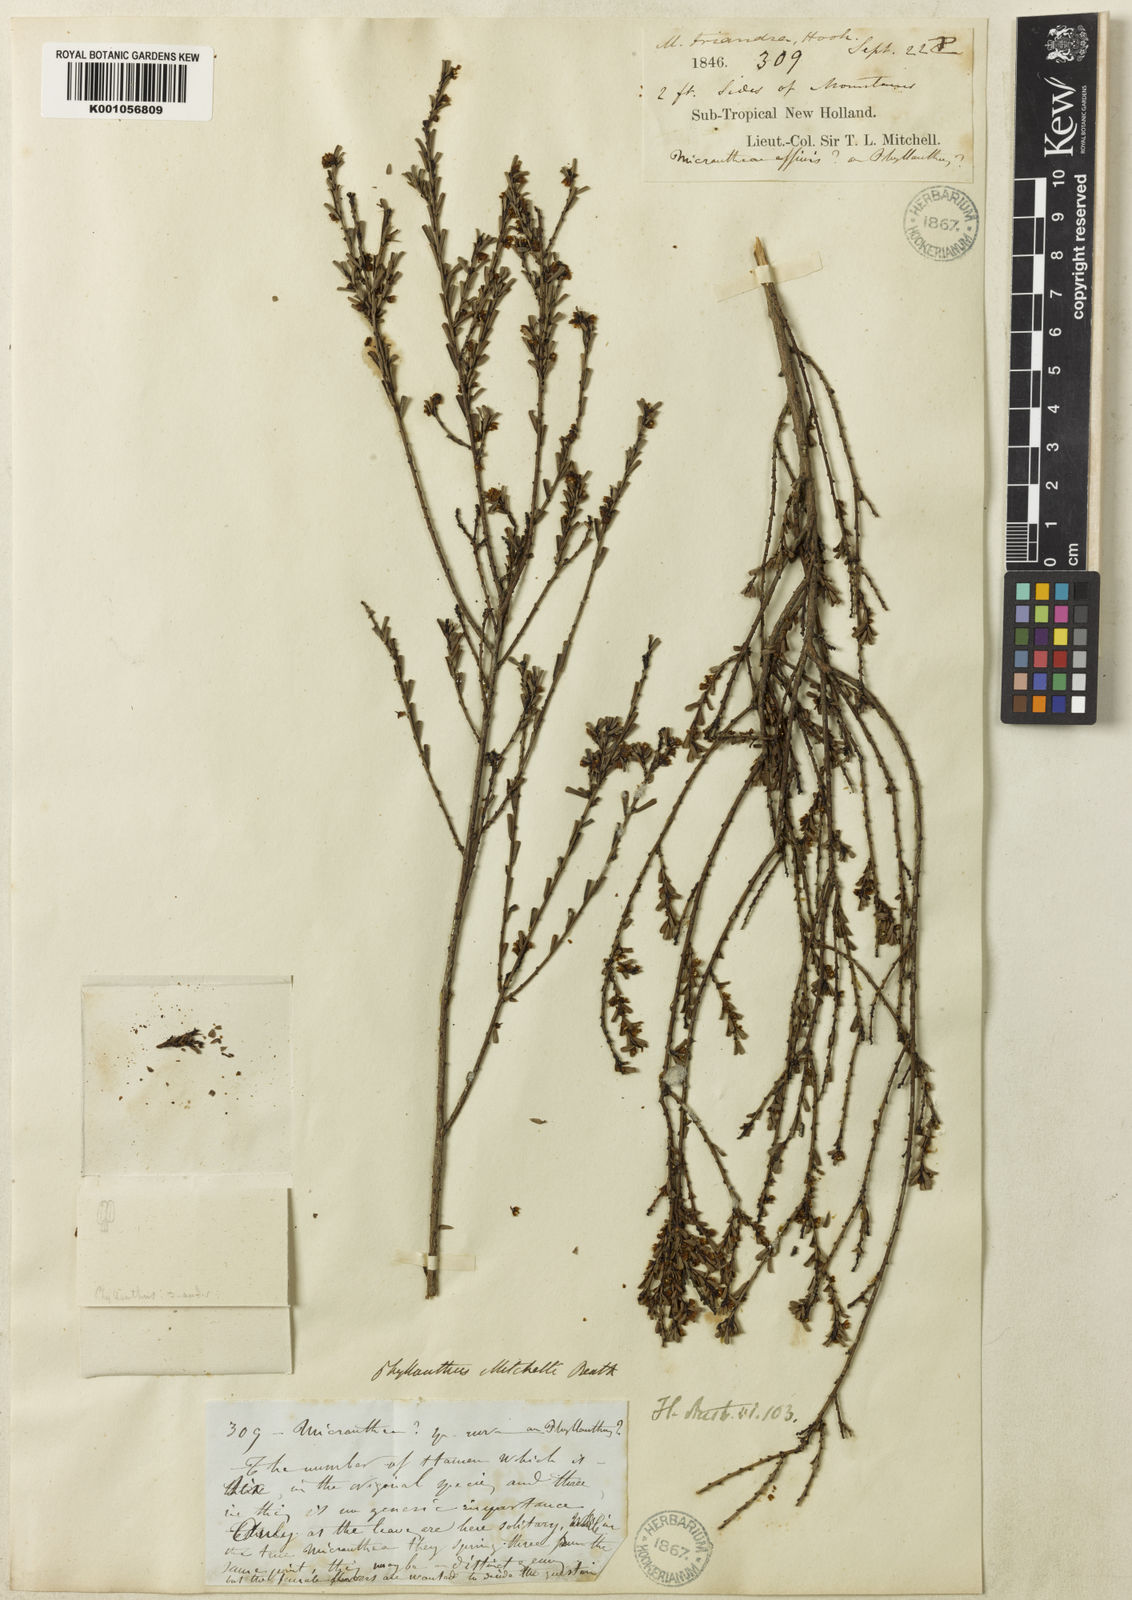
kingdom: Plantae
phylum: Tracheophyta
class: Magnoliopsida
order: Malpighiales
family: Phyllanthaceae
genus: Phyllanthus
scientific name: Phyllanthus mitchellii
